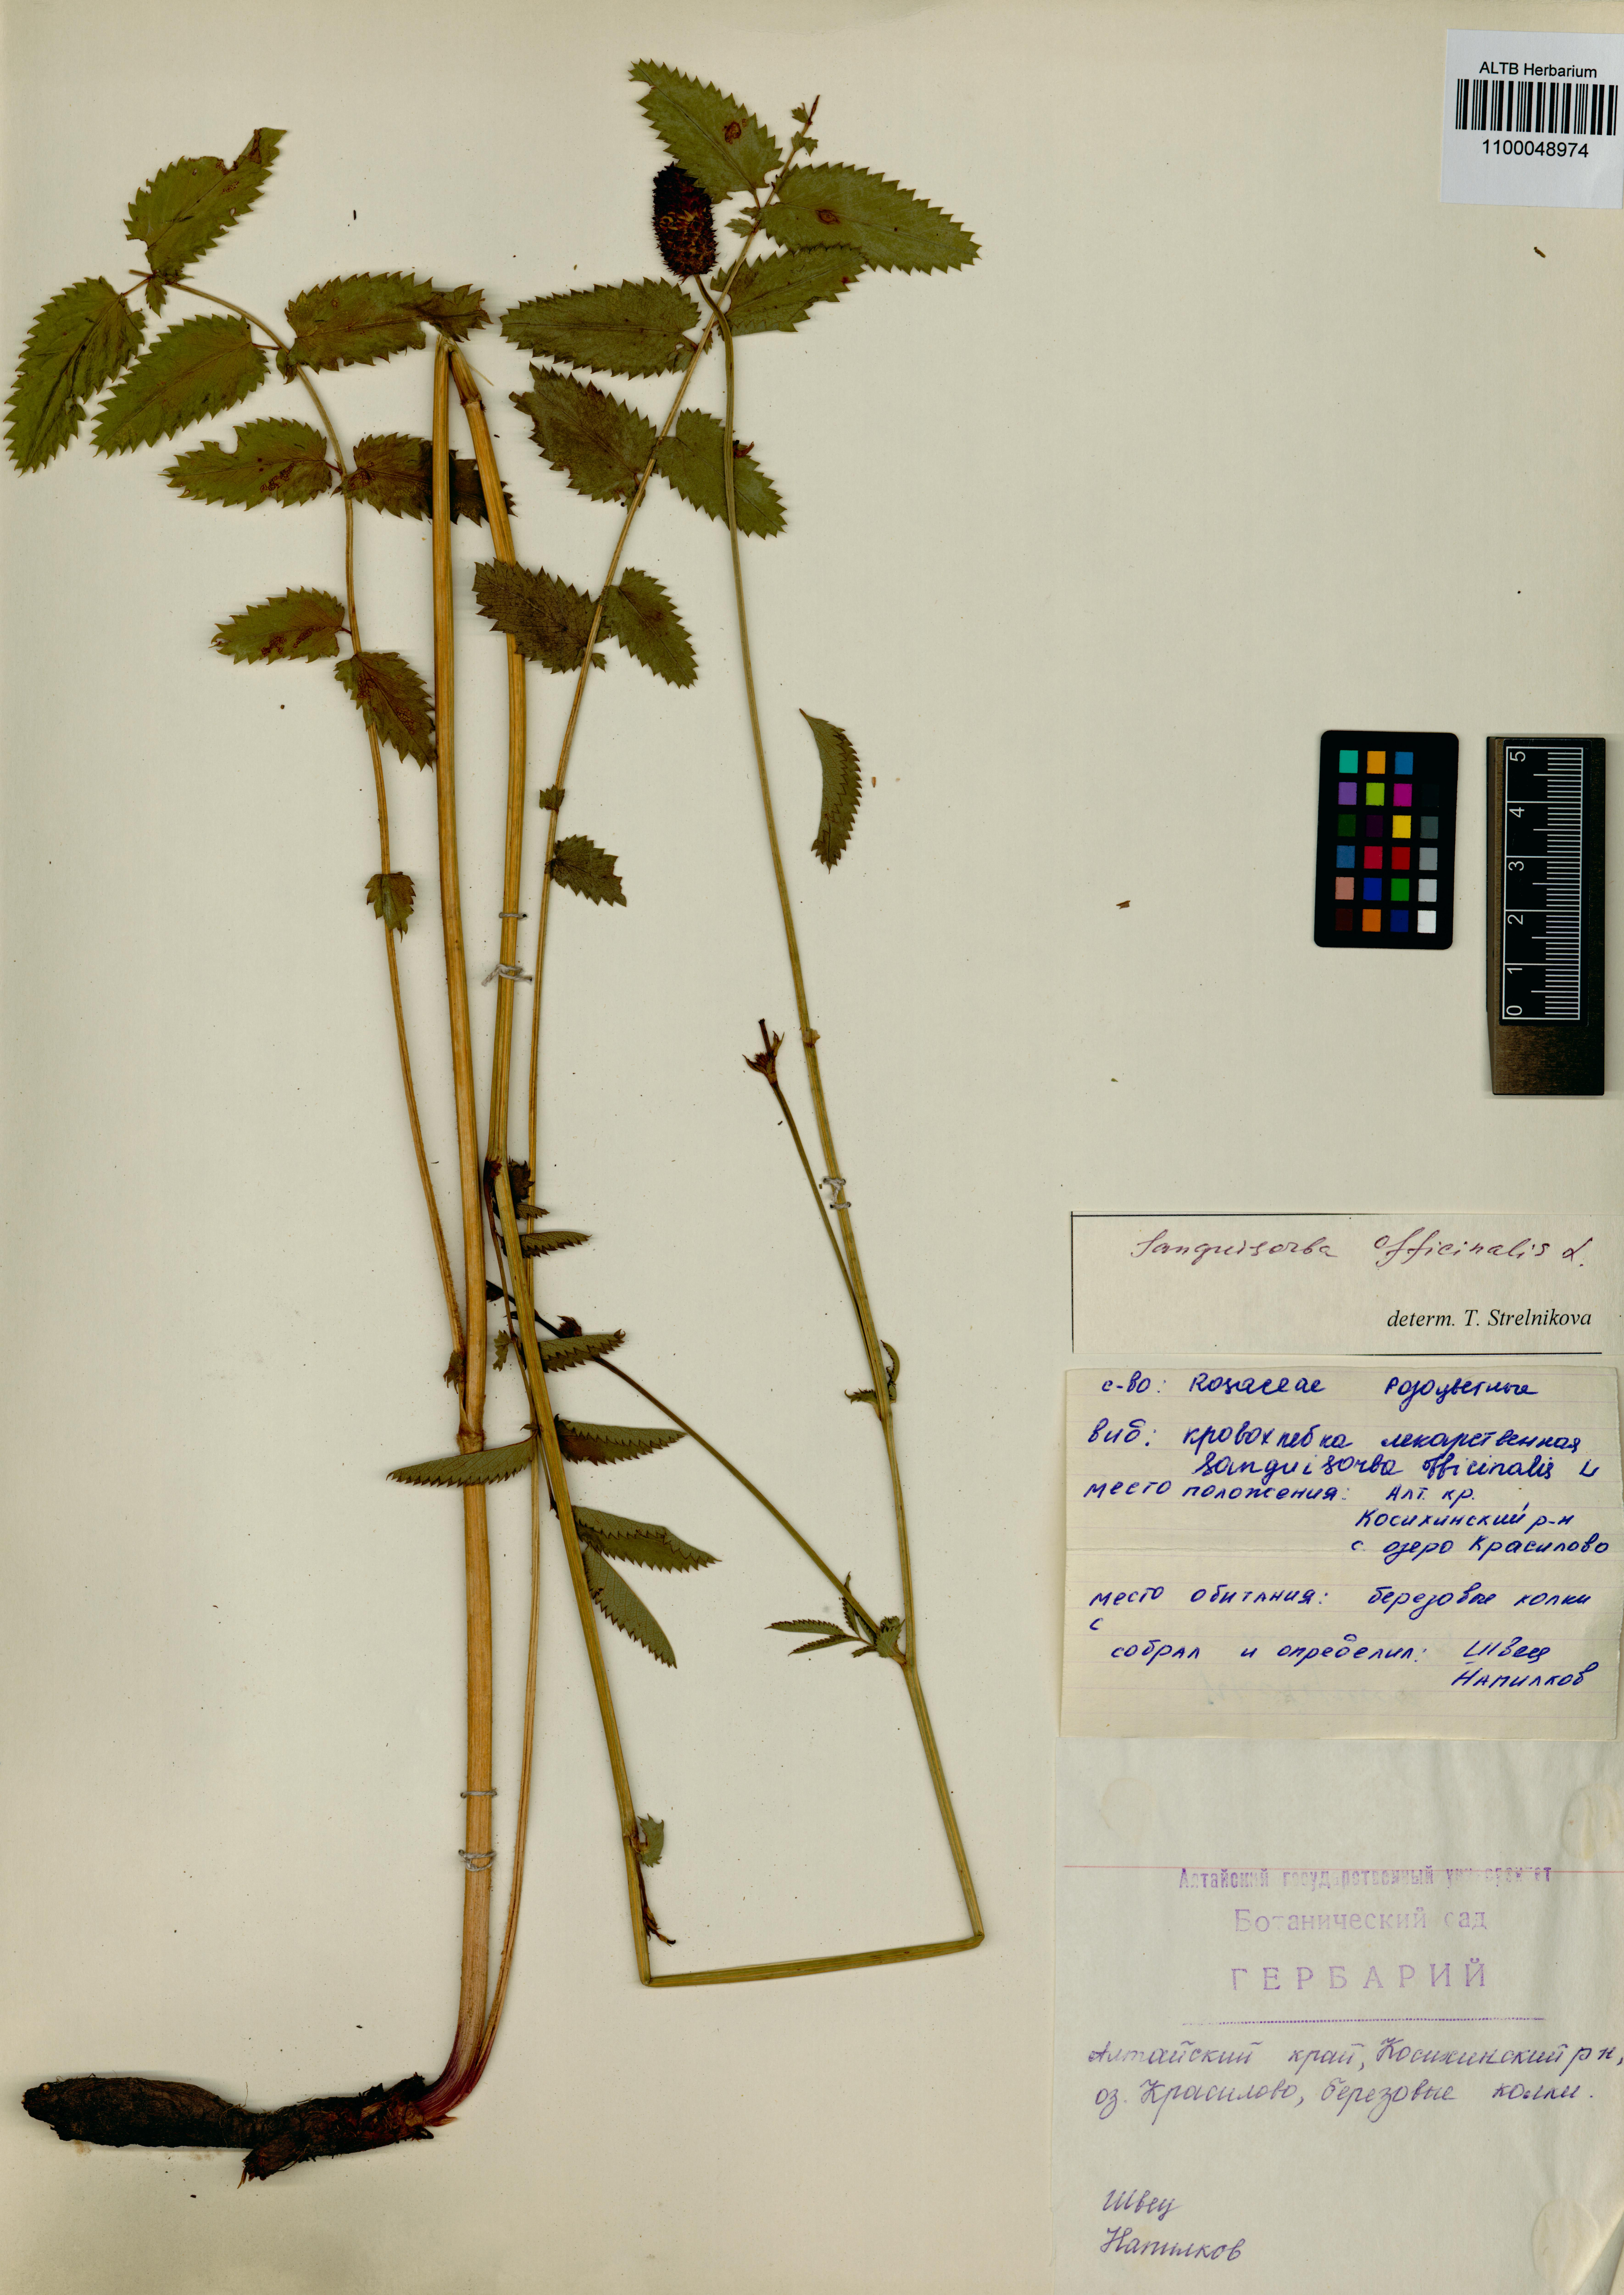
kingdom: Plantae
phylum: Tracheophyta
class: Magnoliopsida
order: Rosales
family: Rosaceae
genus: Sanguisorba
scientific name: Sanguisorba officinalis
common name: Great burnet
